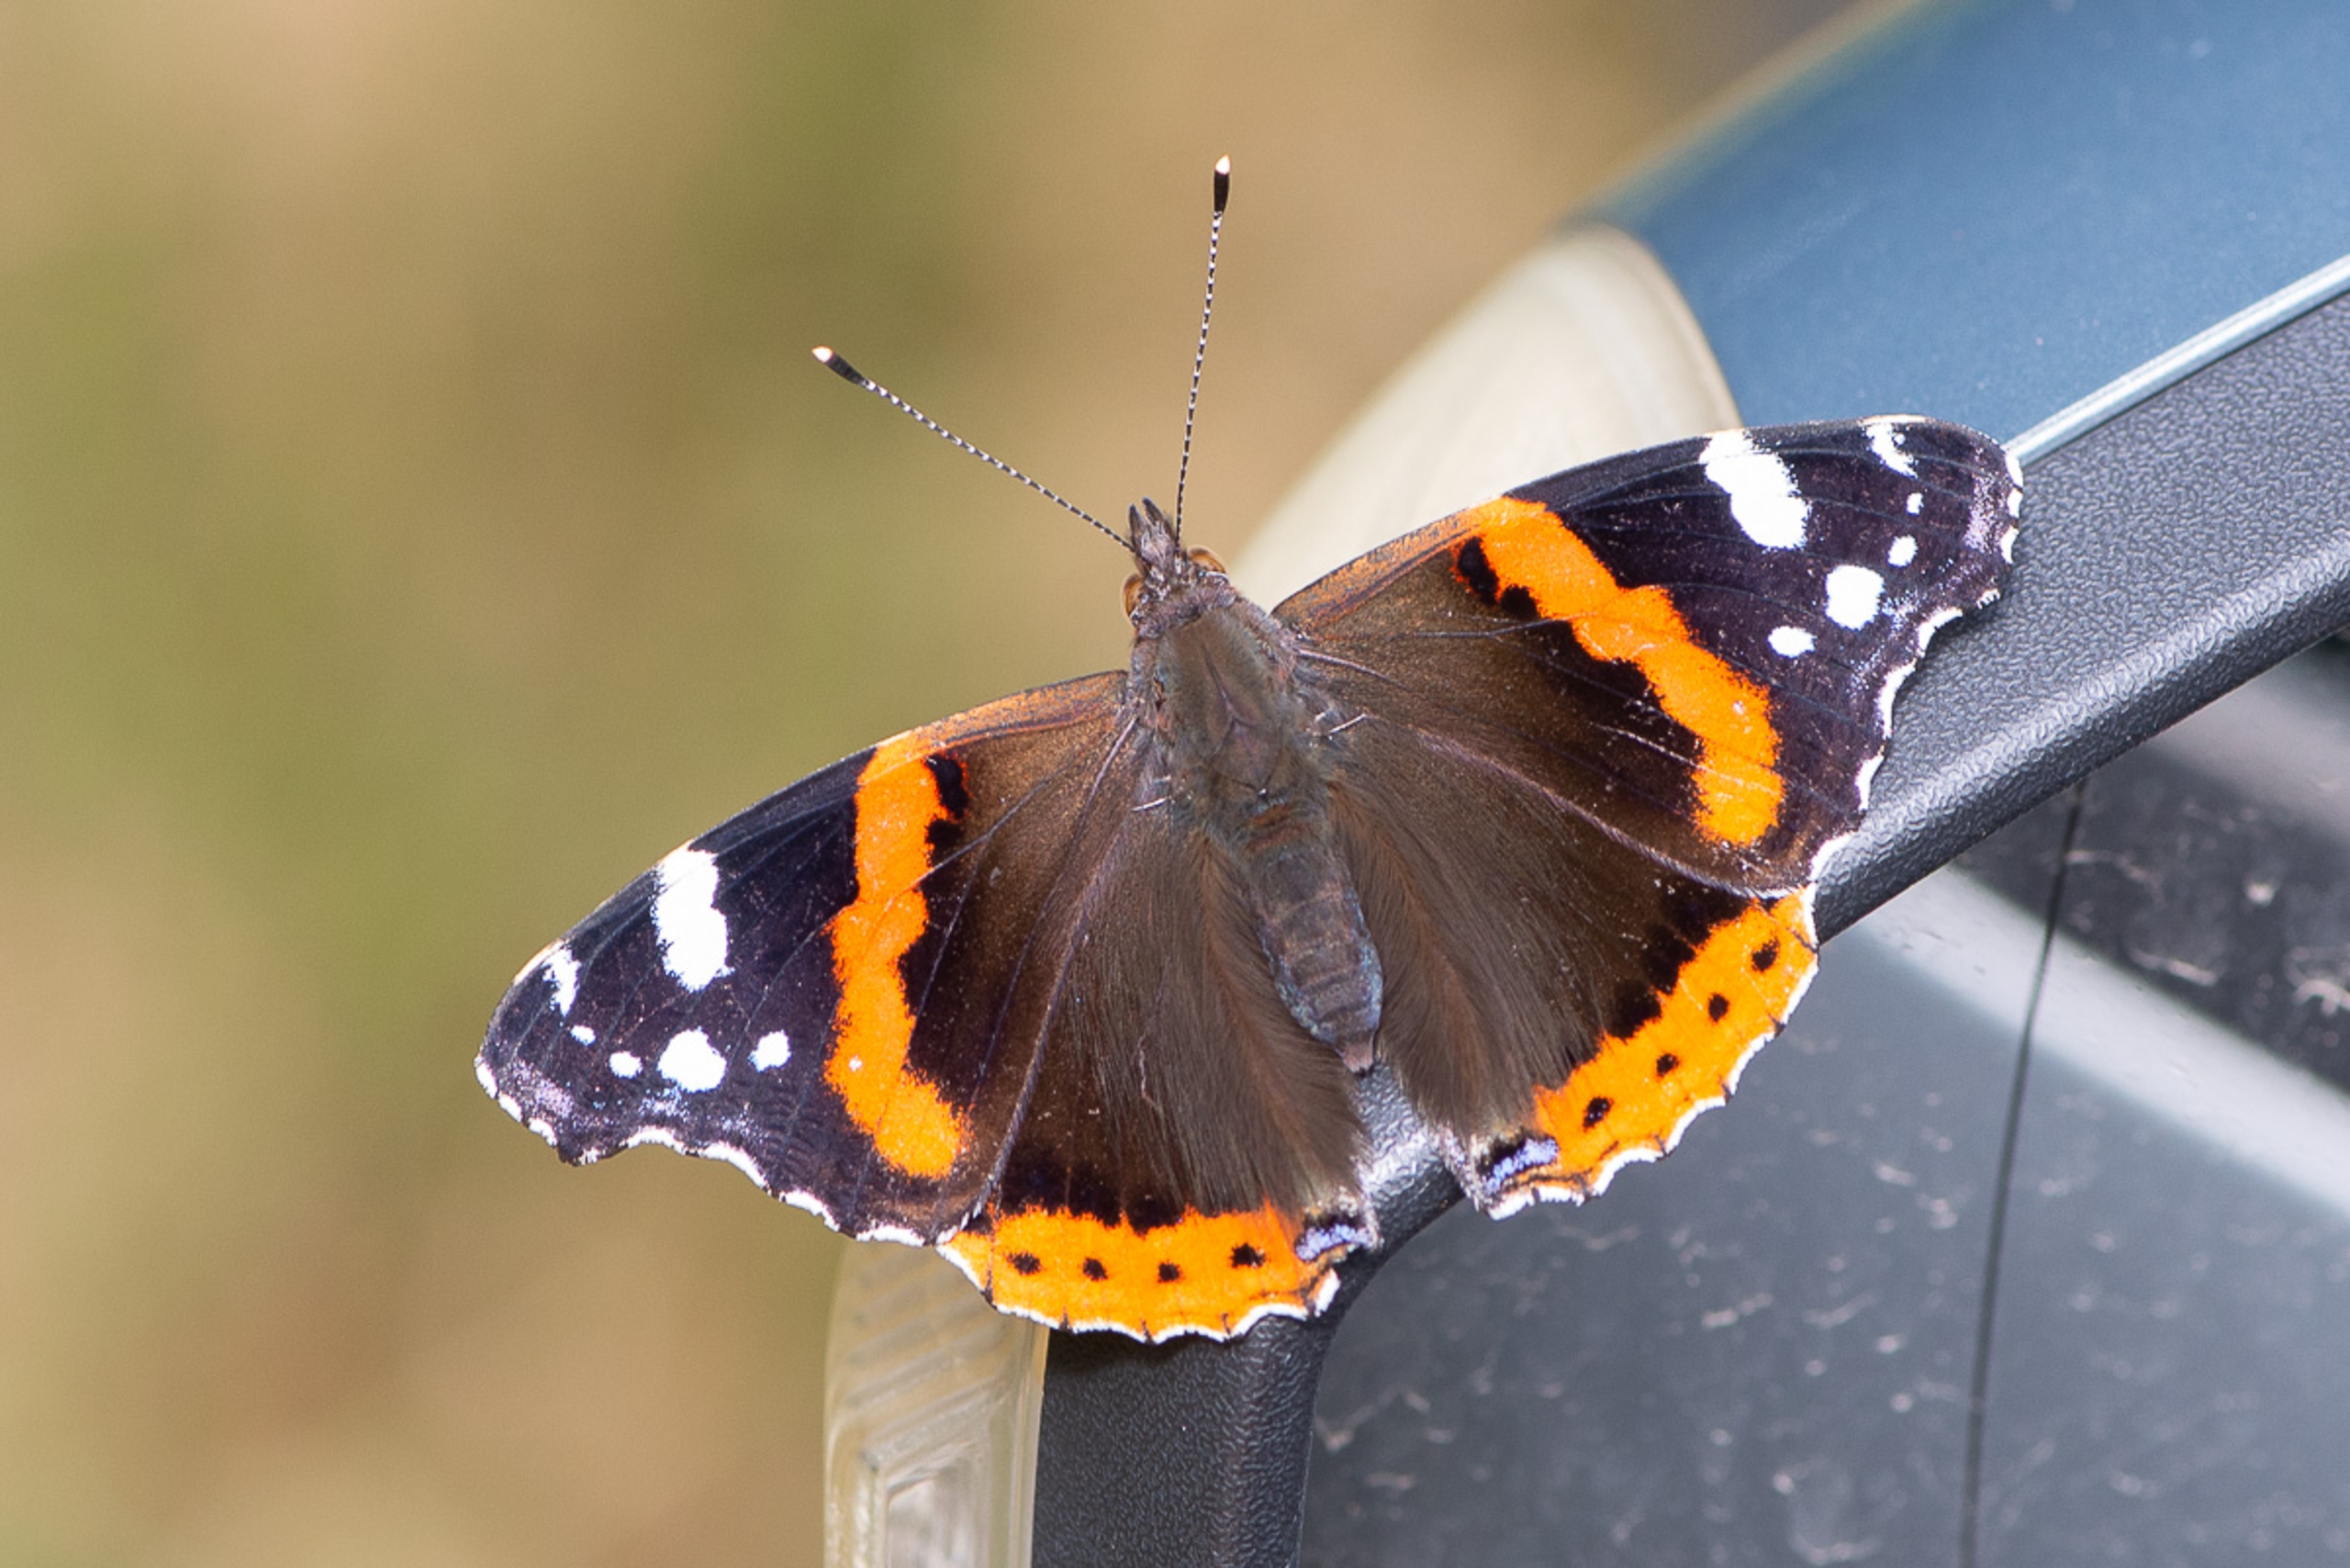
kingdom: Animalia
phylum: Arthropoda
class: Insecta
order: Lepidoptera
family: Nymphalidae
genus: Vanessa
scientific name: Vanessa atalanta
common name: Admiral
